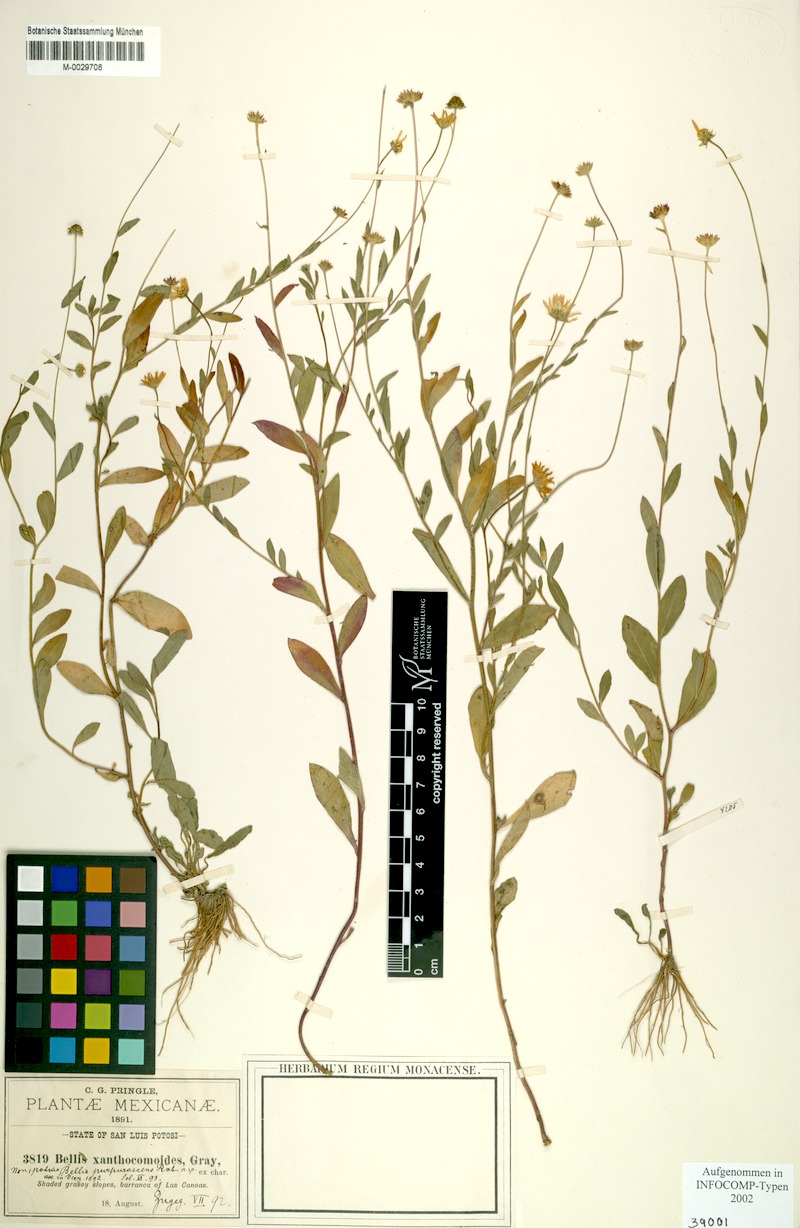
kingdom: Plantae
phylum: Tracheophyta
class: Magnoliopsida
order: Asterales
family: Asteraceae
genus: Astranthium
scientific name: Astranthium purpurascens
